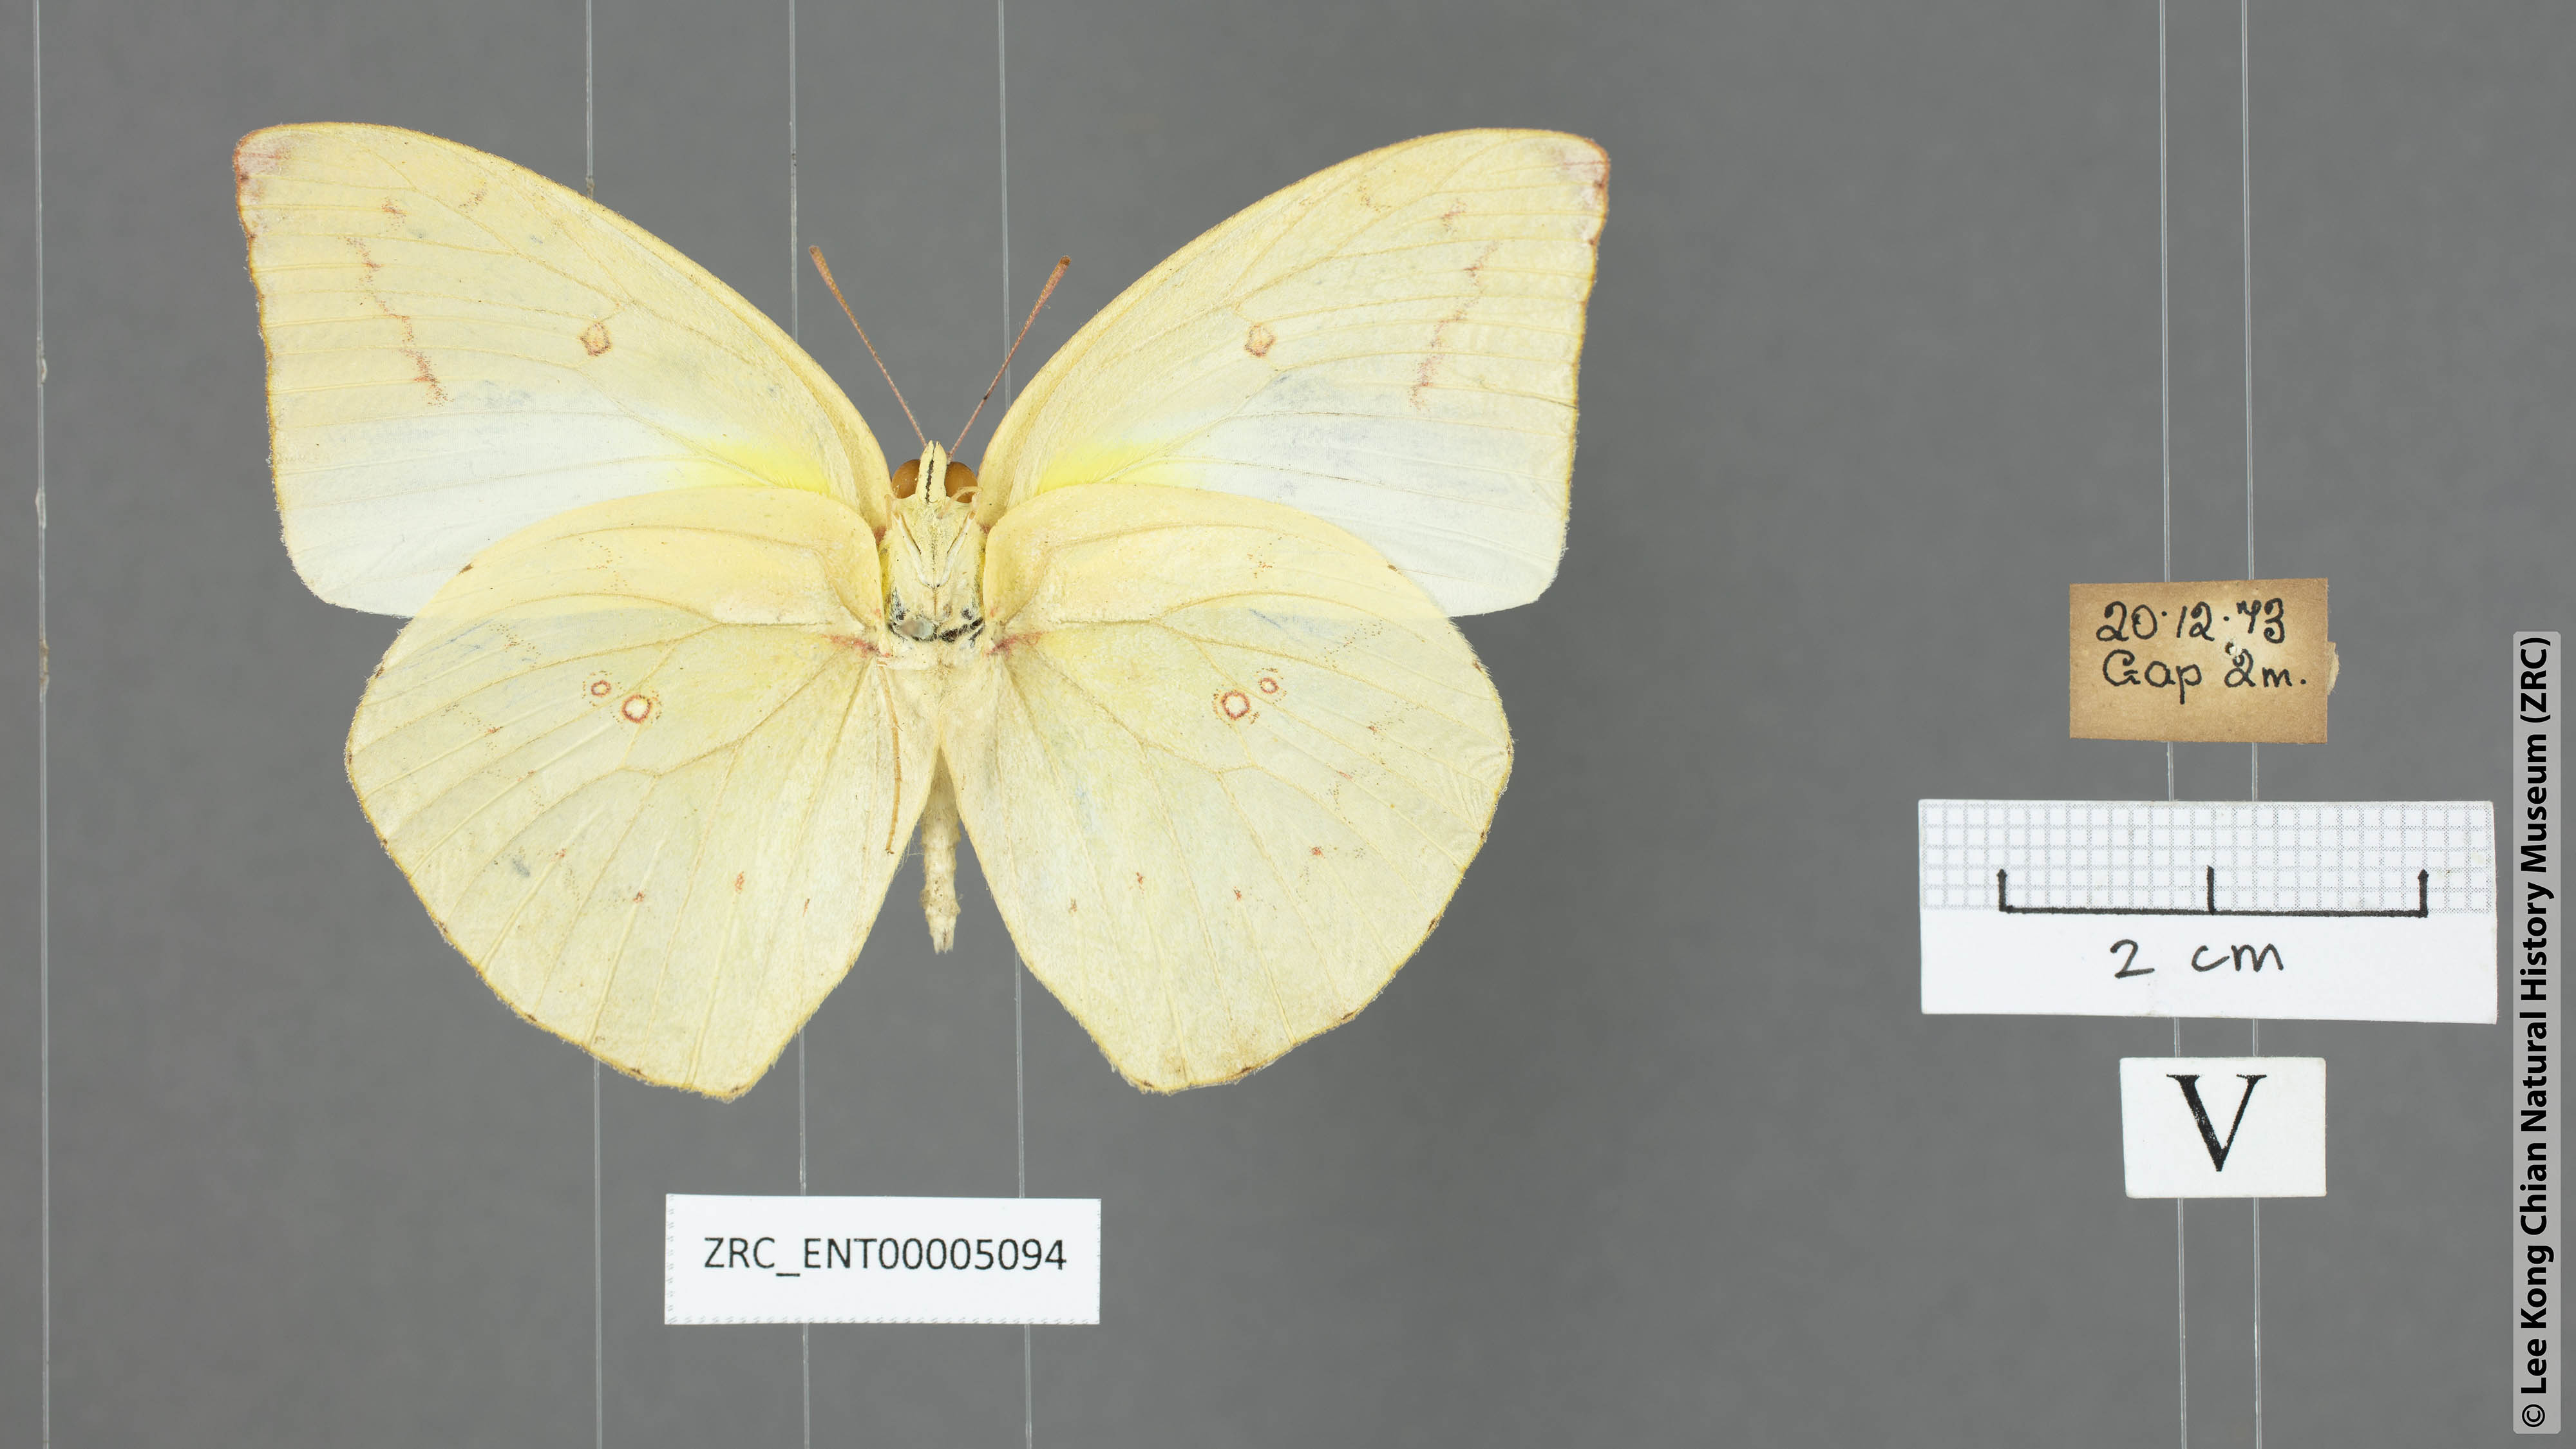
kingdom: Animalia
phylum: Arthropoda
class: Insecta
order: Lepidoptera
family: Pieridae
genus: Catopsilia
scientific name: Catopsilia pomona
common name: Common emigrant
